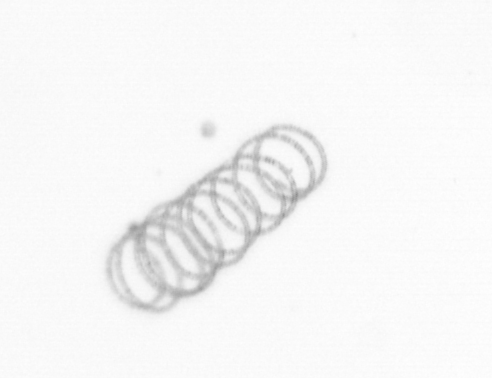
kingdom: Chromista
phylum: Ochrophyta
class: Bacillariophyceae
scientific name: Bacillariophyceae
